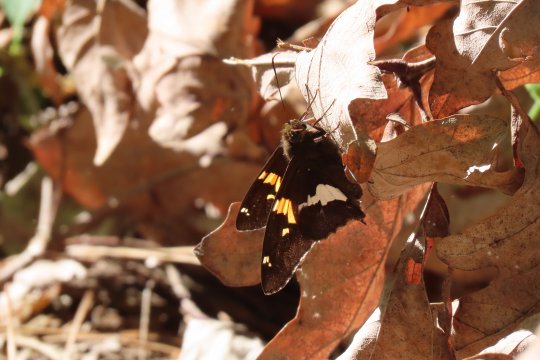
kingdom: Animalia
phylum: Arthropoda
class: Insecta
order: Lepidoptera
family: Hesperiidae
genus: Epargyreus
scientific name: Epargyreus clarus
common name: Silver-spotted Skipper
